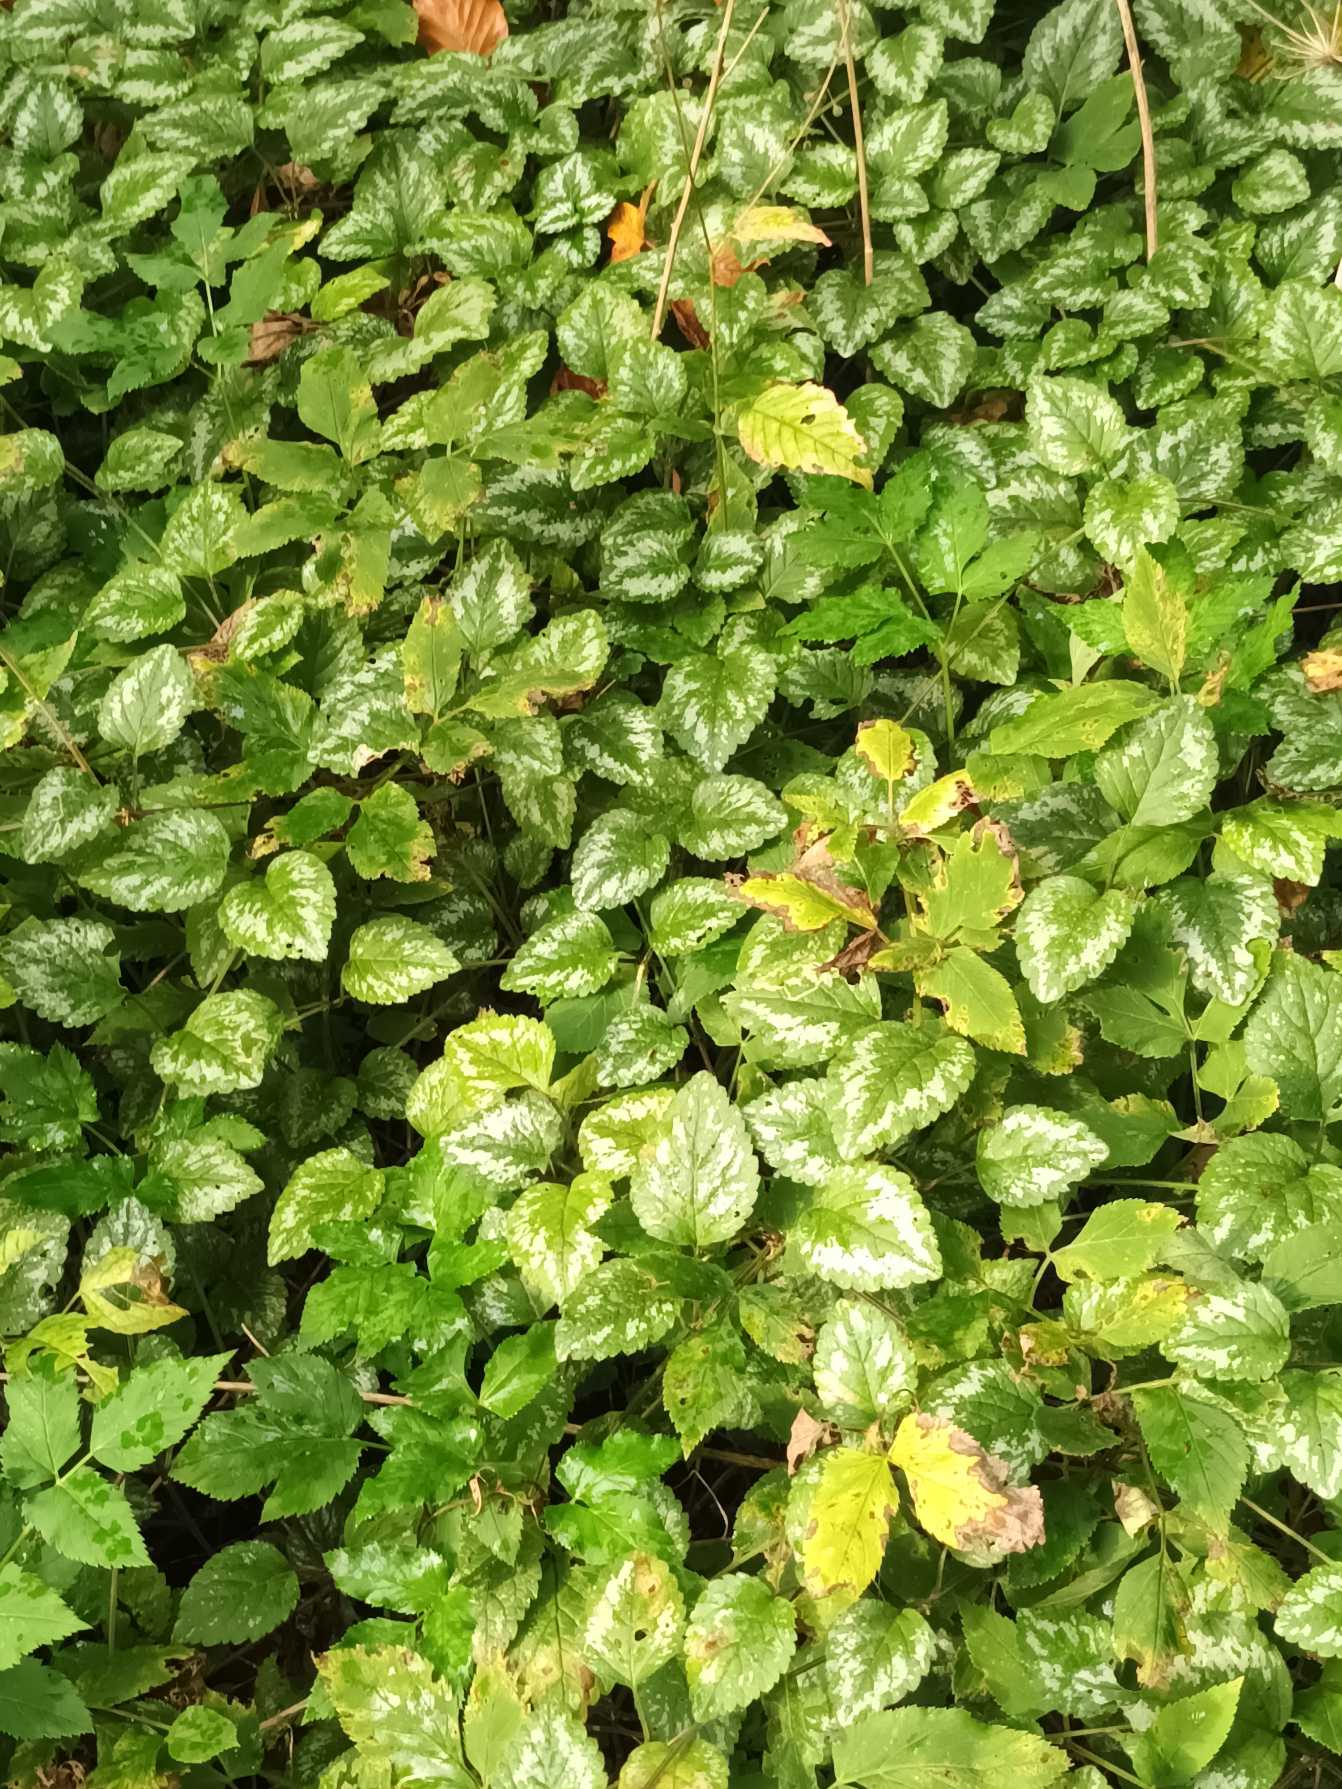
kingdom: Plantae
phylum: Tracheophyta
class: Magnoliopsida
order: Lamiales
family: Lamiaceae
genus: Lamium
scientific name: Lamium galeobdolon
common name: Have-guldnælde
